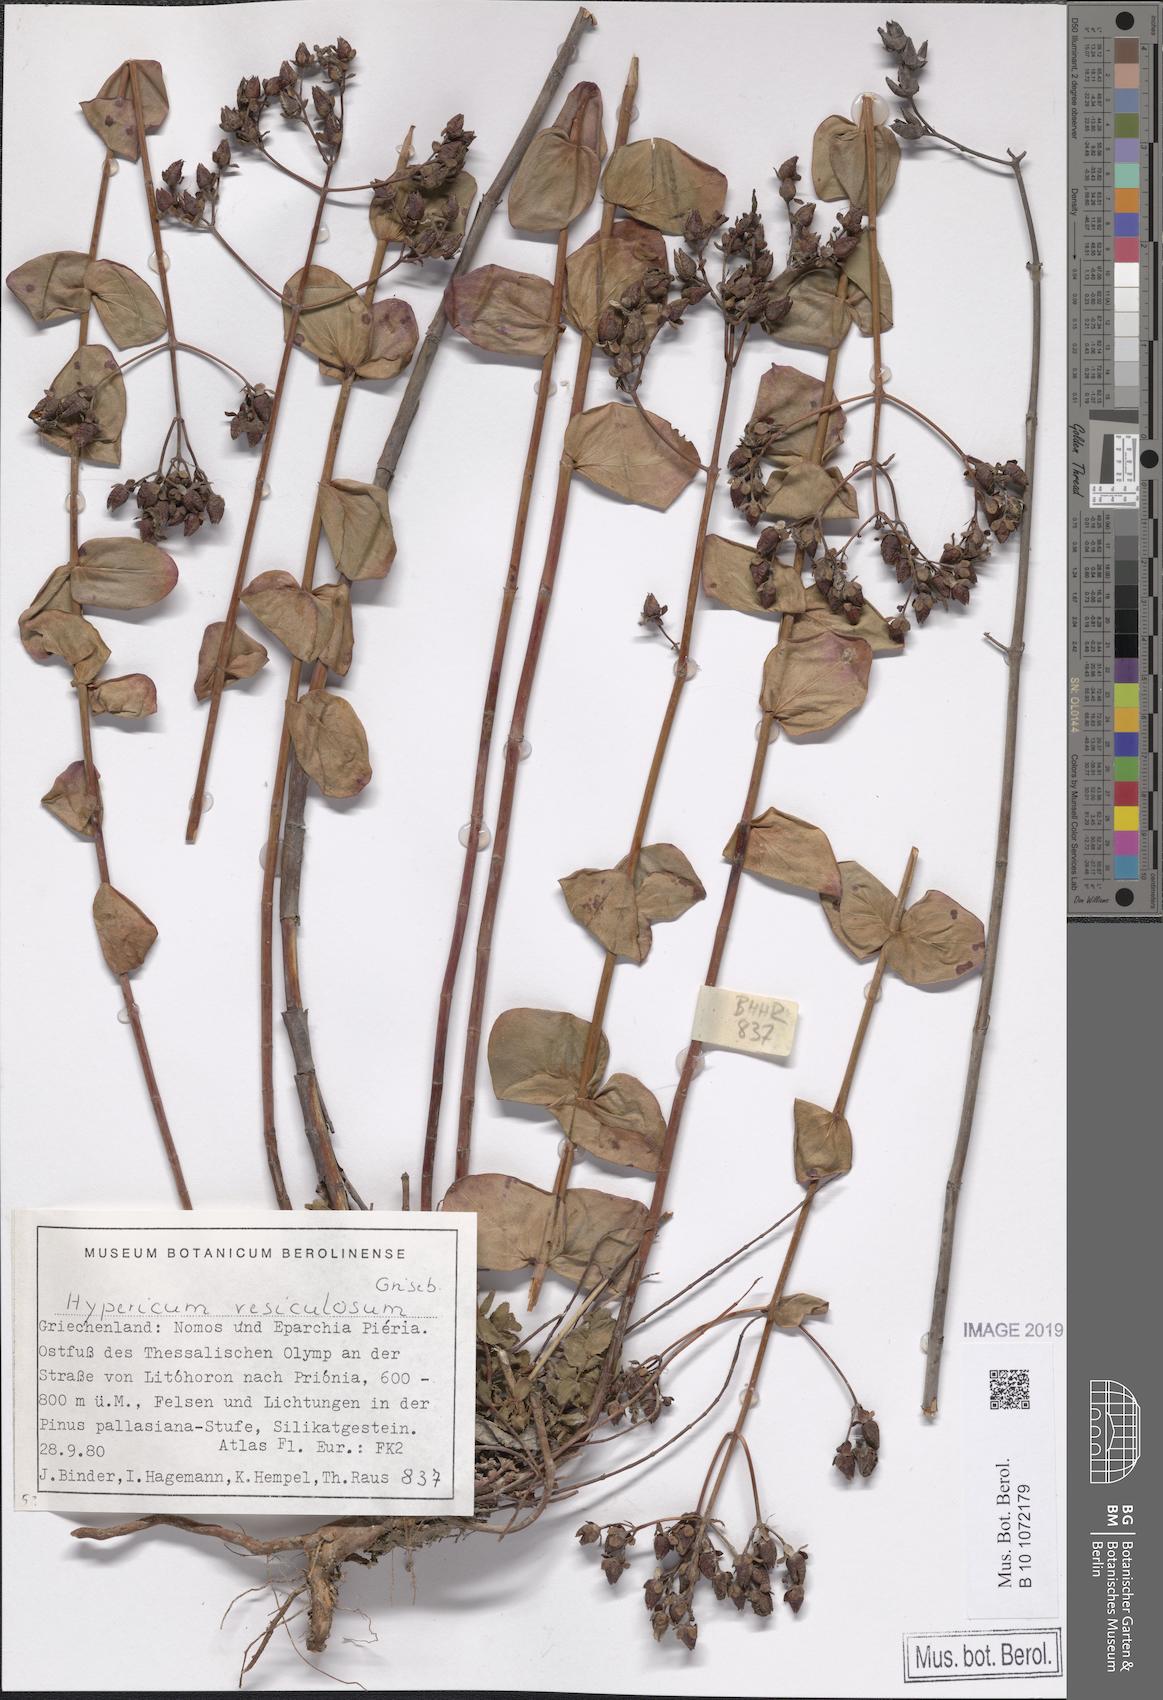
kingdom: Plantae
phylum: Tracheophyta
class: Magnoliopsida
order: Malpighiales
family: Hypericaceae
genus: Hypericum
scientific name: Hypericum vesiculosum
